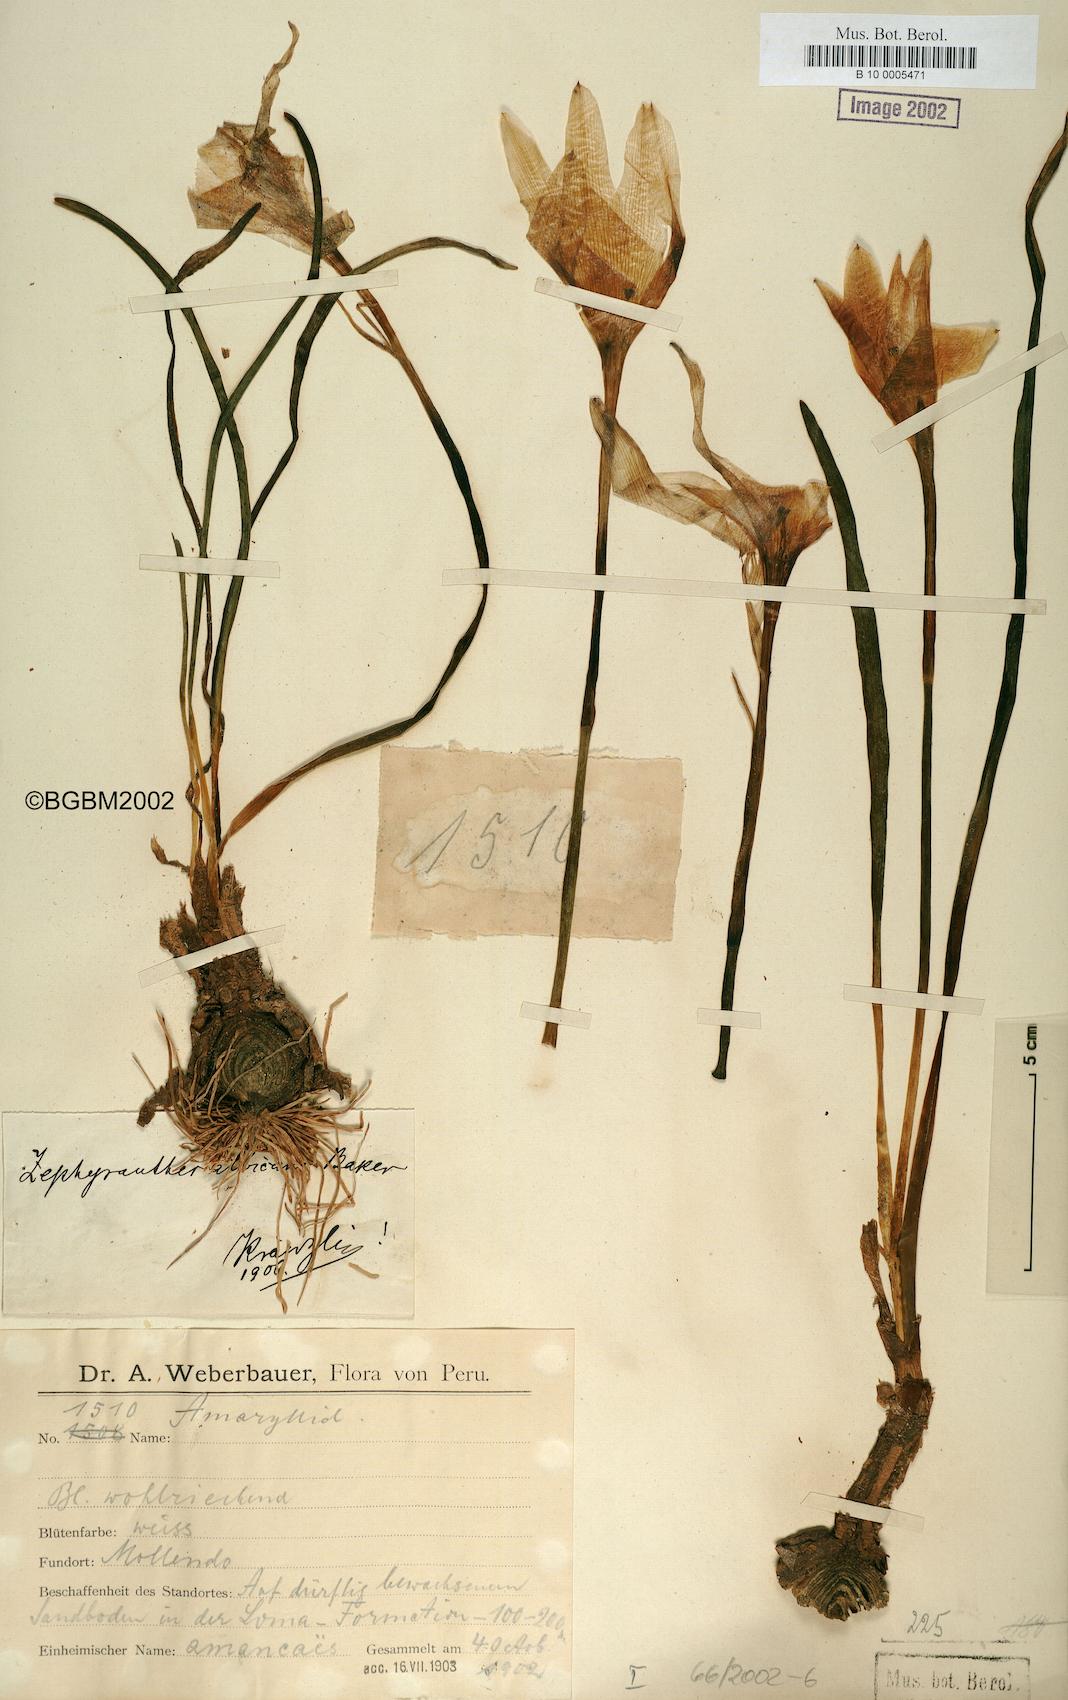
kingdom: Plantae
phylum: Tracheophyta
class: Liliopsida
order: Asparagales
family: Amaryllidaceae
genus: Pyrolirion
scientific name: Pyrolirion albicans
